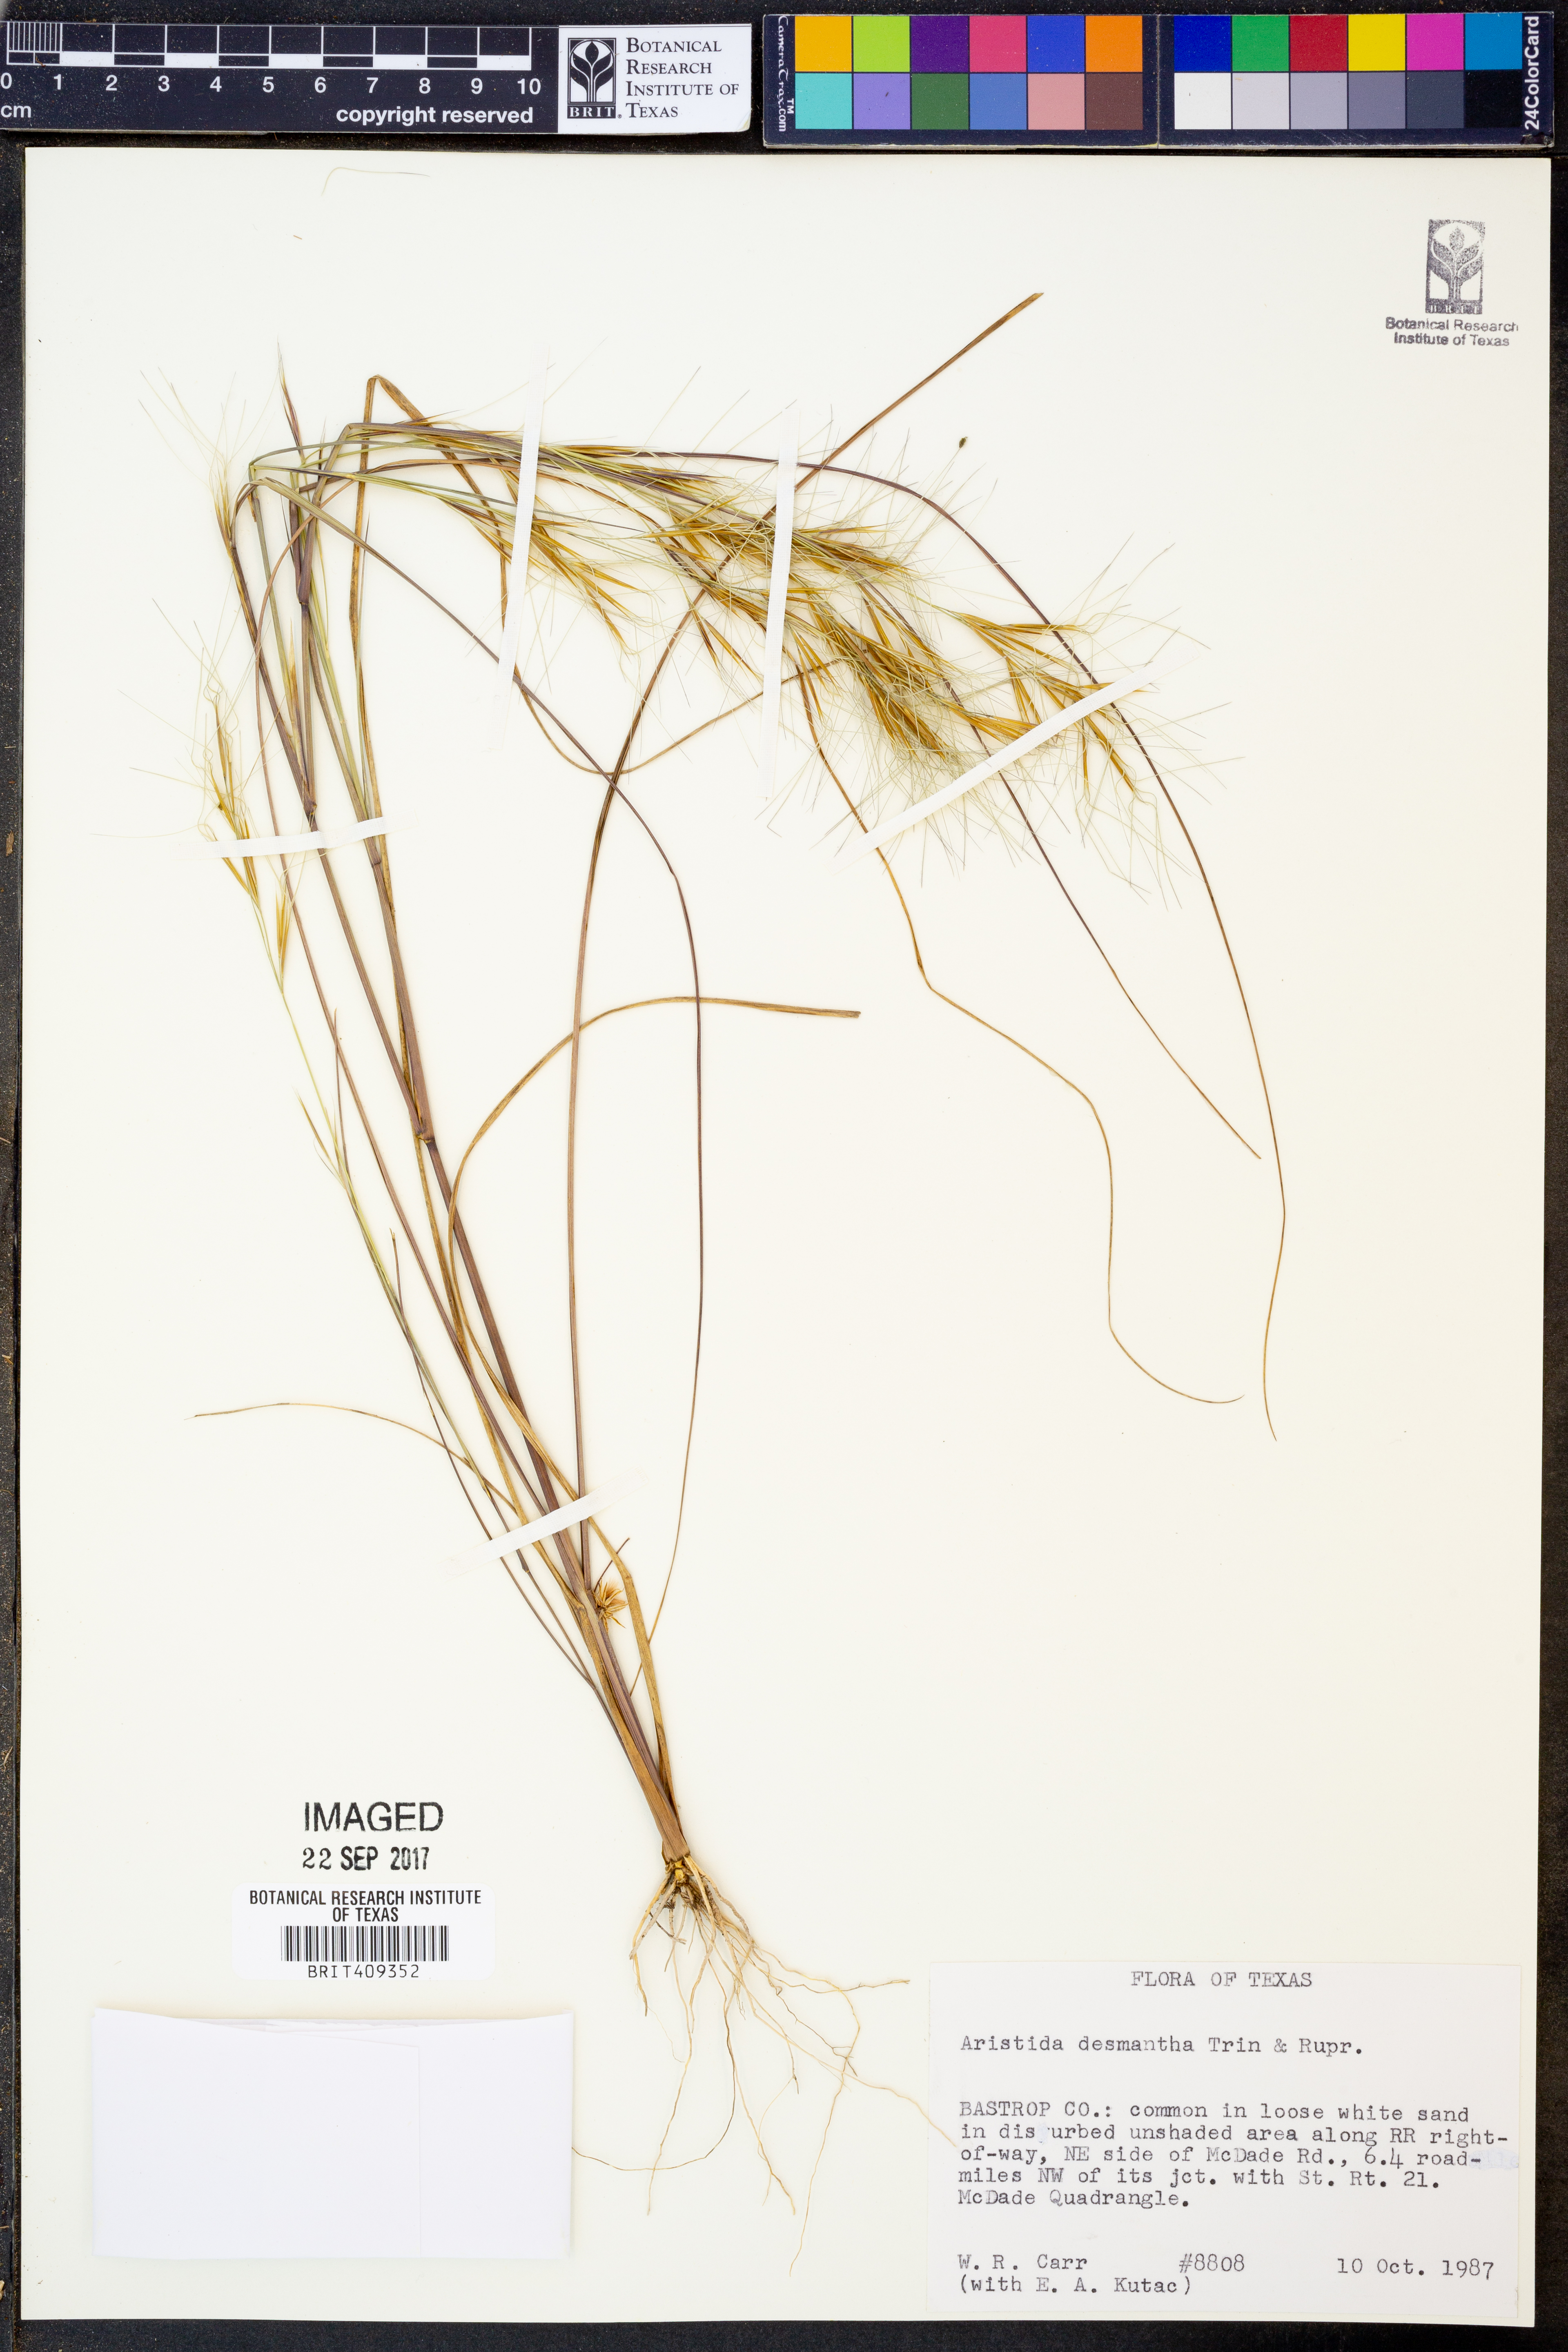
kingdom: Plantae
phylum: Tracheophyta
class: Liliopsida
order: Poales
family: Poaceae
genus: Aristida
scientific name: Aristida desmantha
